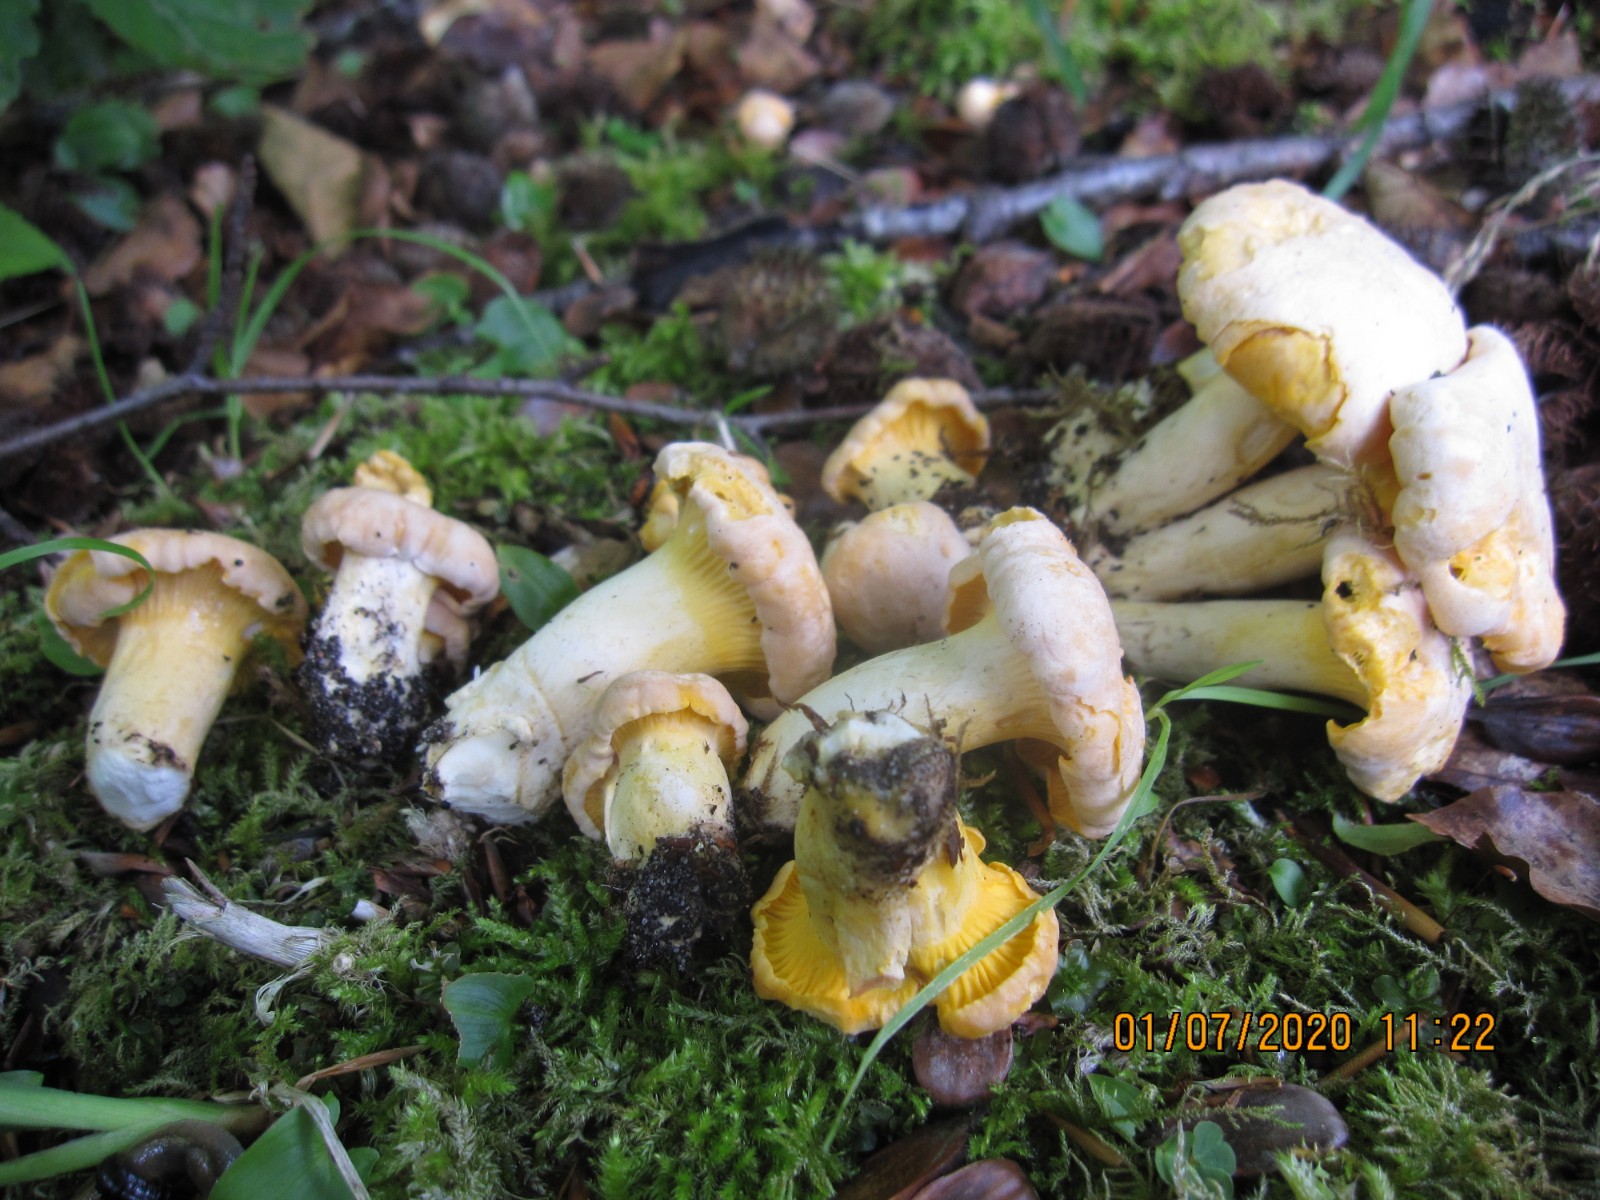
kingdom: Fungi
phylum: Basidiomycota
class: Agaricomycetes
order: Cantharellales
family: Hydnaceae
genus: Cantharellus
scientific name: Cantharellus pallens
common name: bleg kantarel
